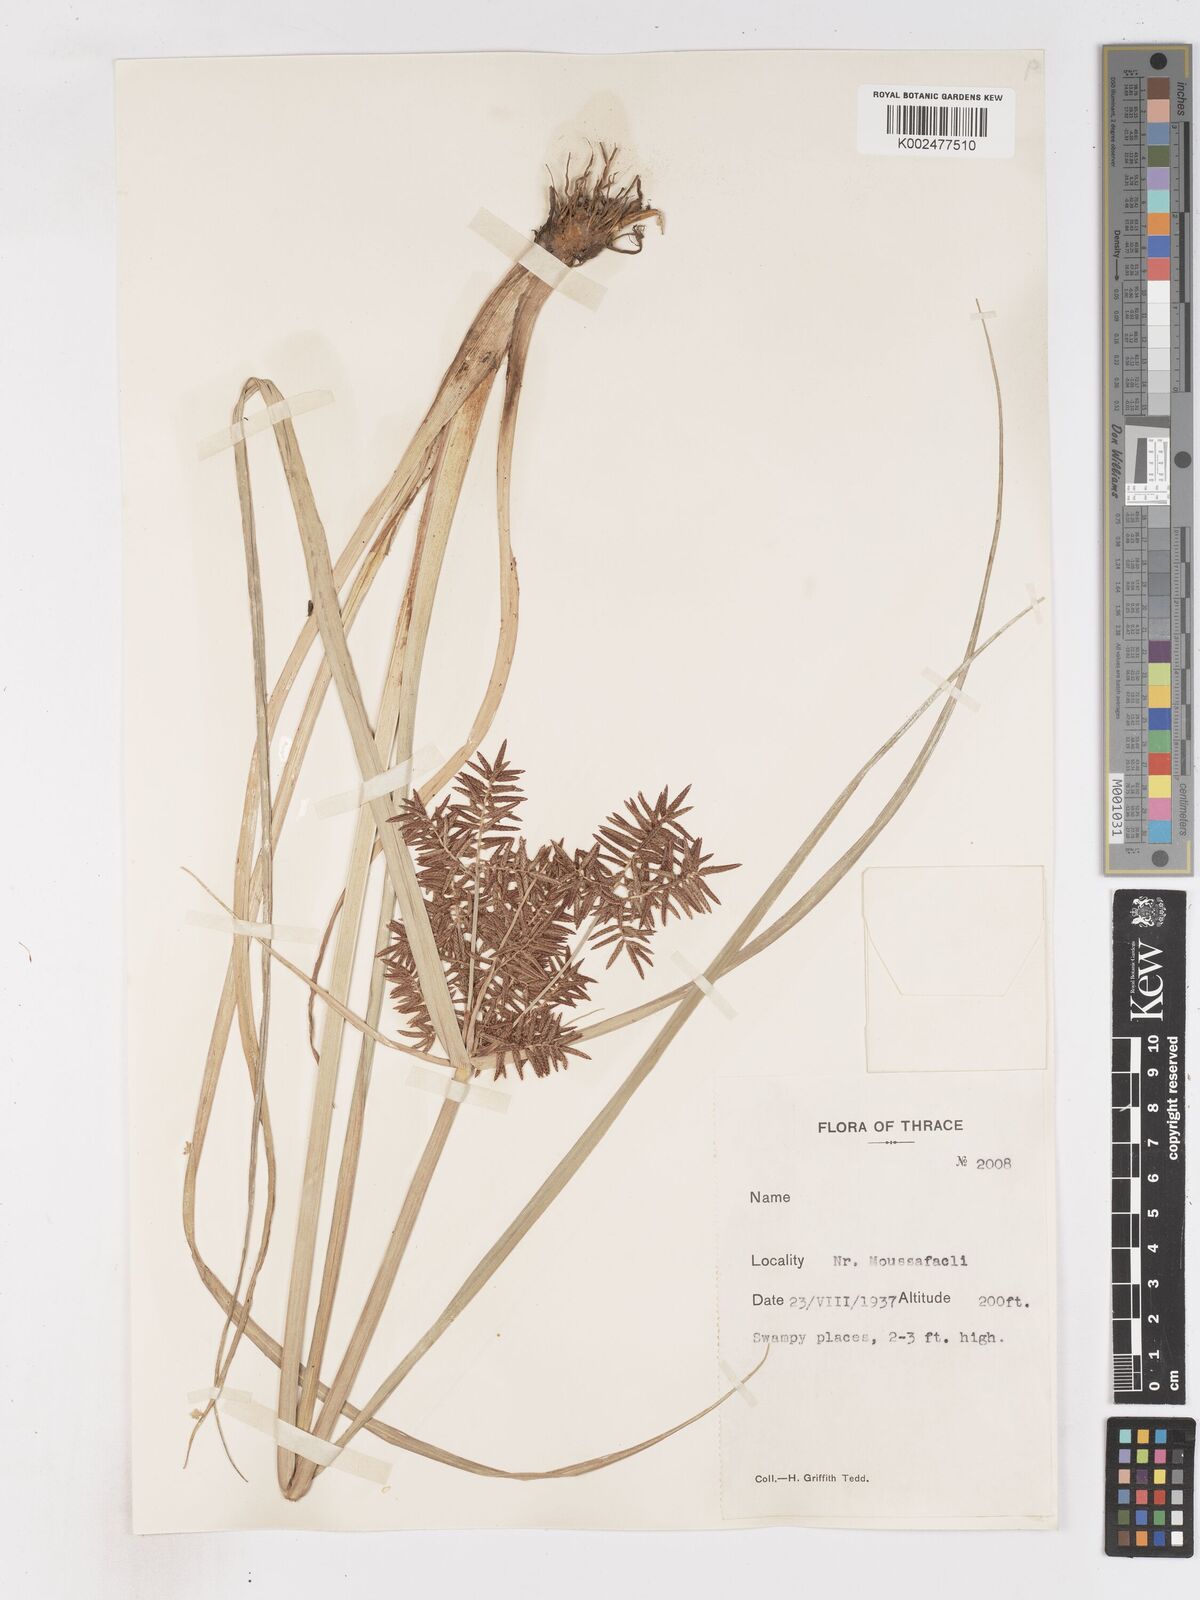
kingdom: Plantae
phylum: Tracheophyta
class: Liliopsida
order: Poales
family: Cyperaceae
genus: Cyperus
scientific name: Cyperus serotinus
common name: Tidalmarsh flatsedge
